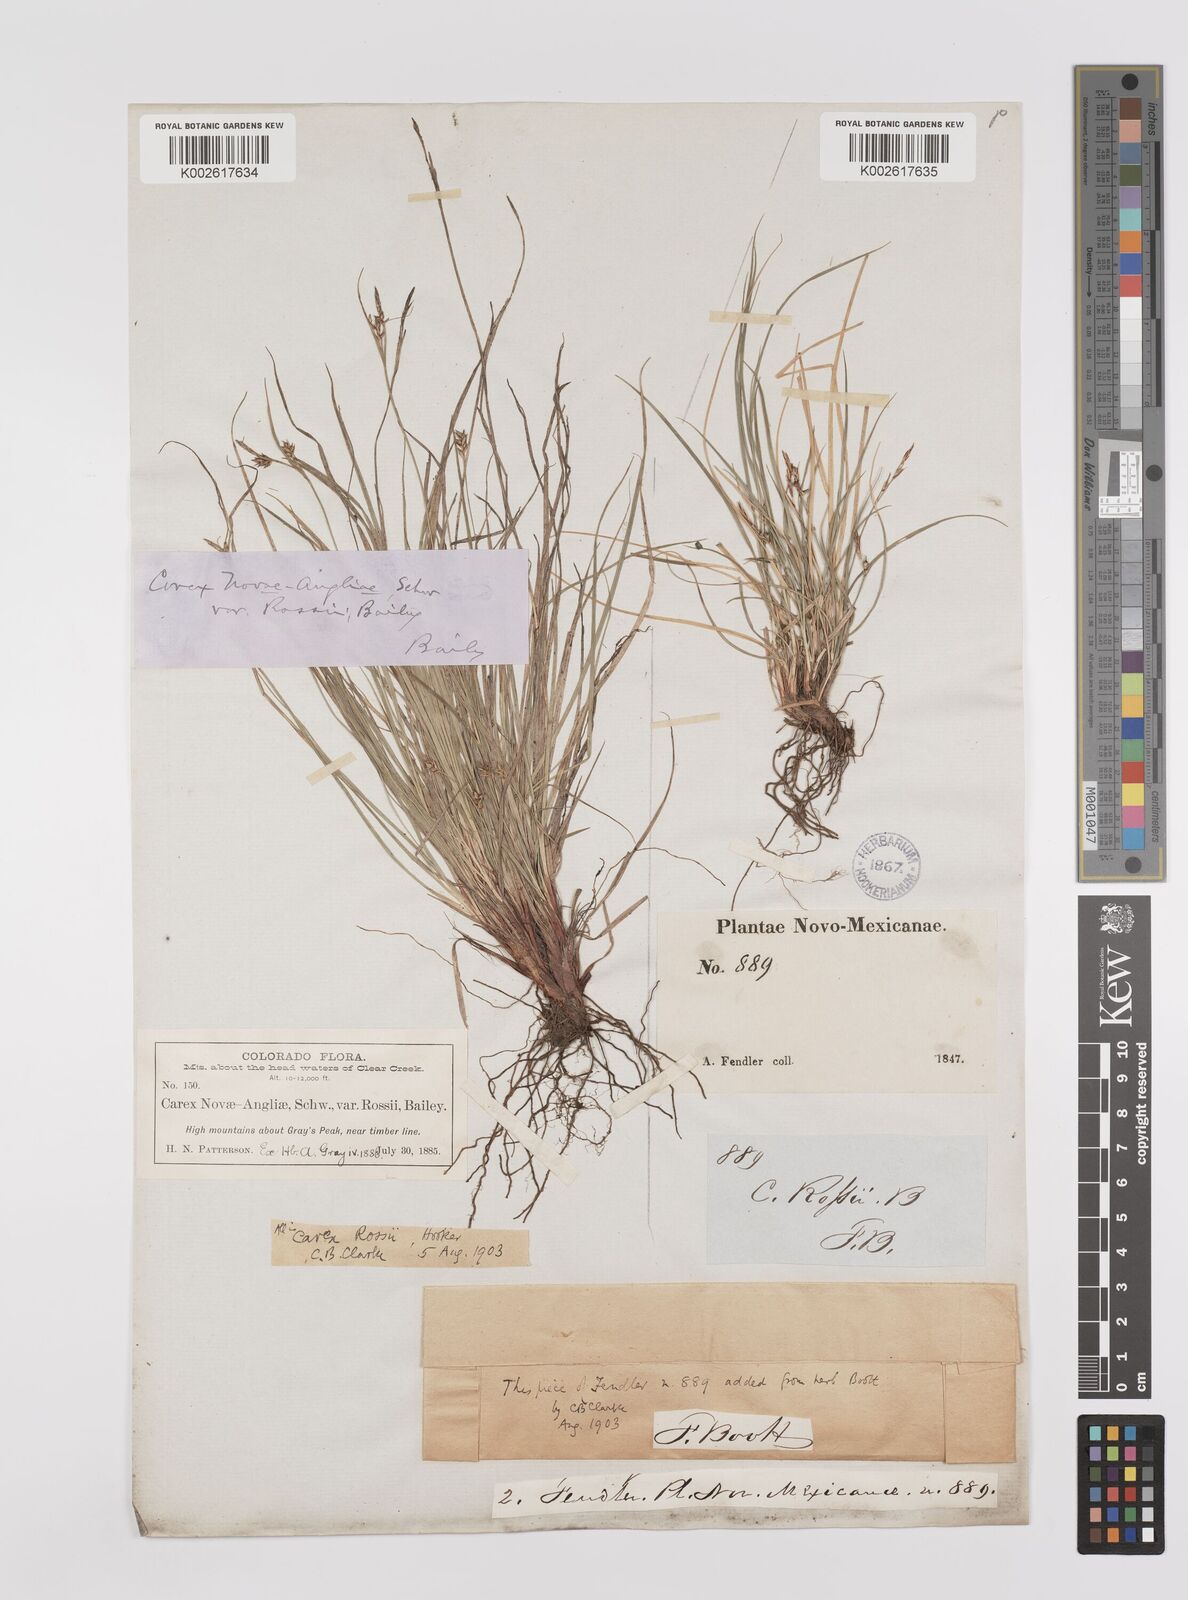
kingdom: Plantae
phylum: Tracheophyta
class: Liliopsida
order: Poales
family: Cyperaceae
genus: Carex
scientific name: Carex rossii
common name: Ross' sedge
